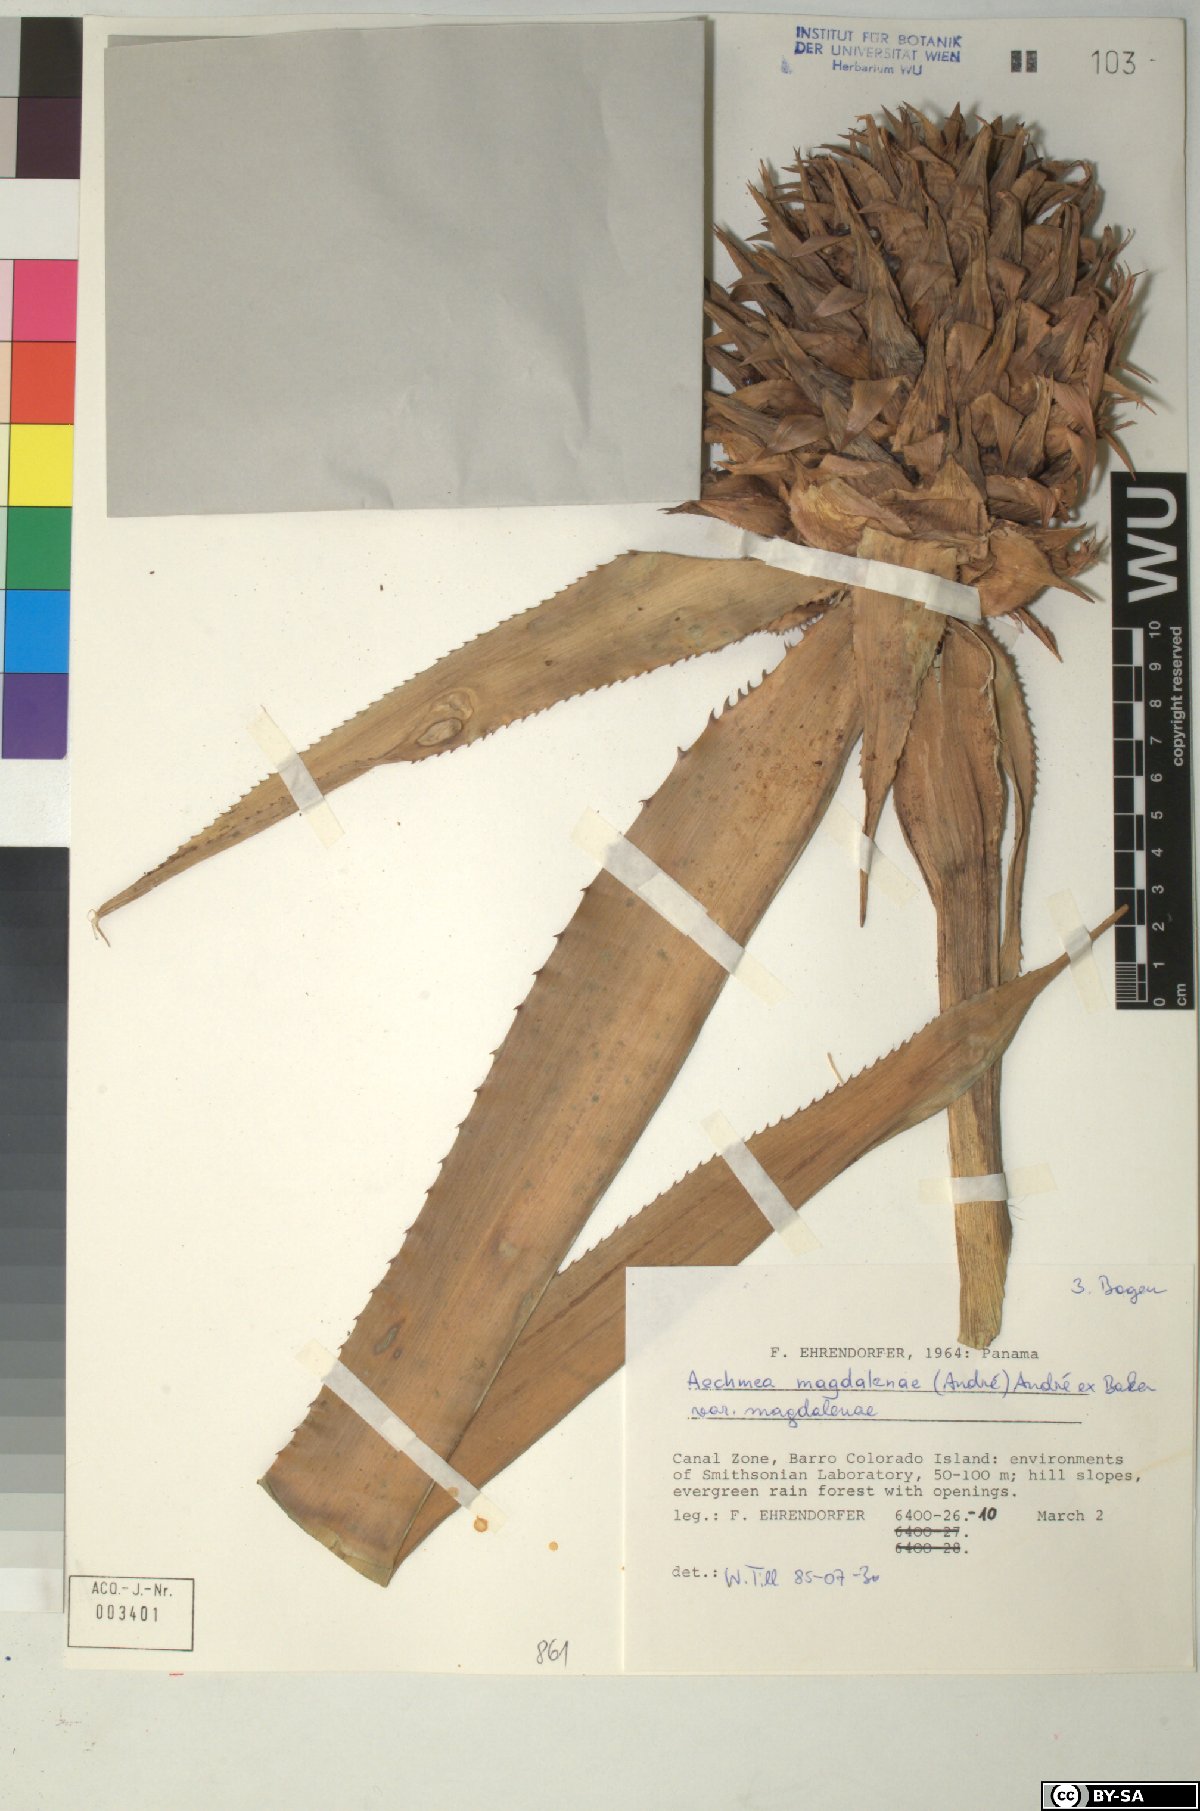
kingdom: Plantae
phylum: Tracheophyta
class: Liliopsida
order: Poales
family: Bromeliaceae
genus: Aechmea
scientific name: Aechmea
